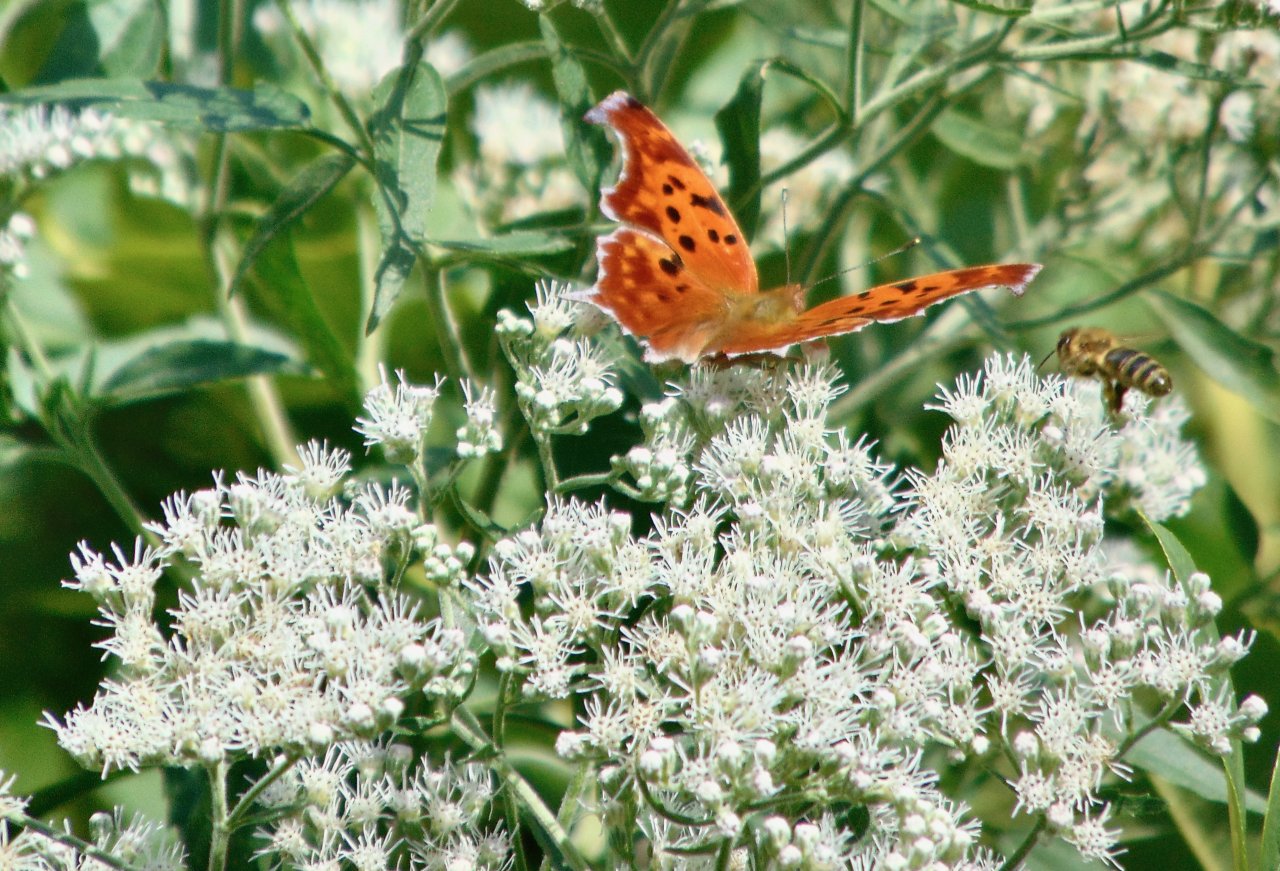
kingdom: Animalia
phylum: Arthropoda
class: Insecta
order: Lepidoptera
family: Nymphalidae
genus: Polygonia
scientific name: Polygonia interrogationis
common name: Question Mark
